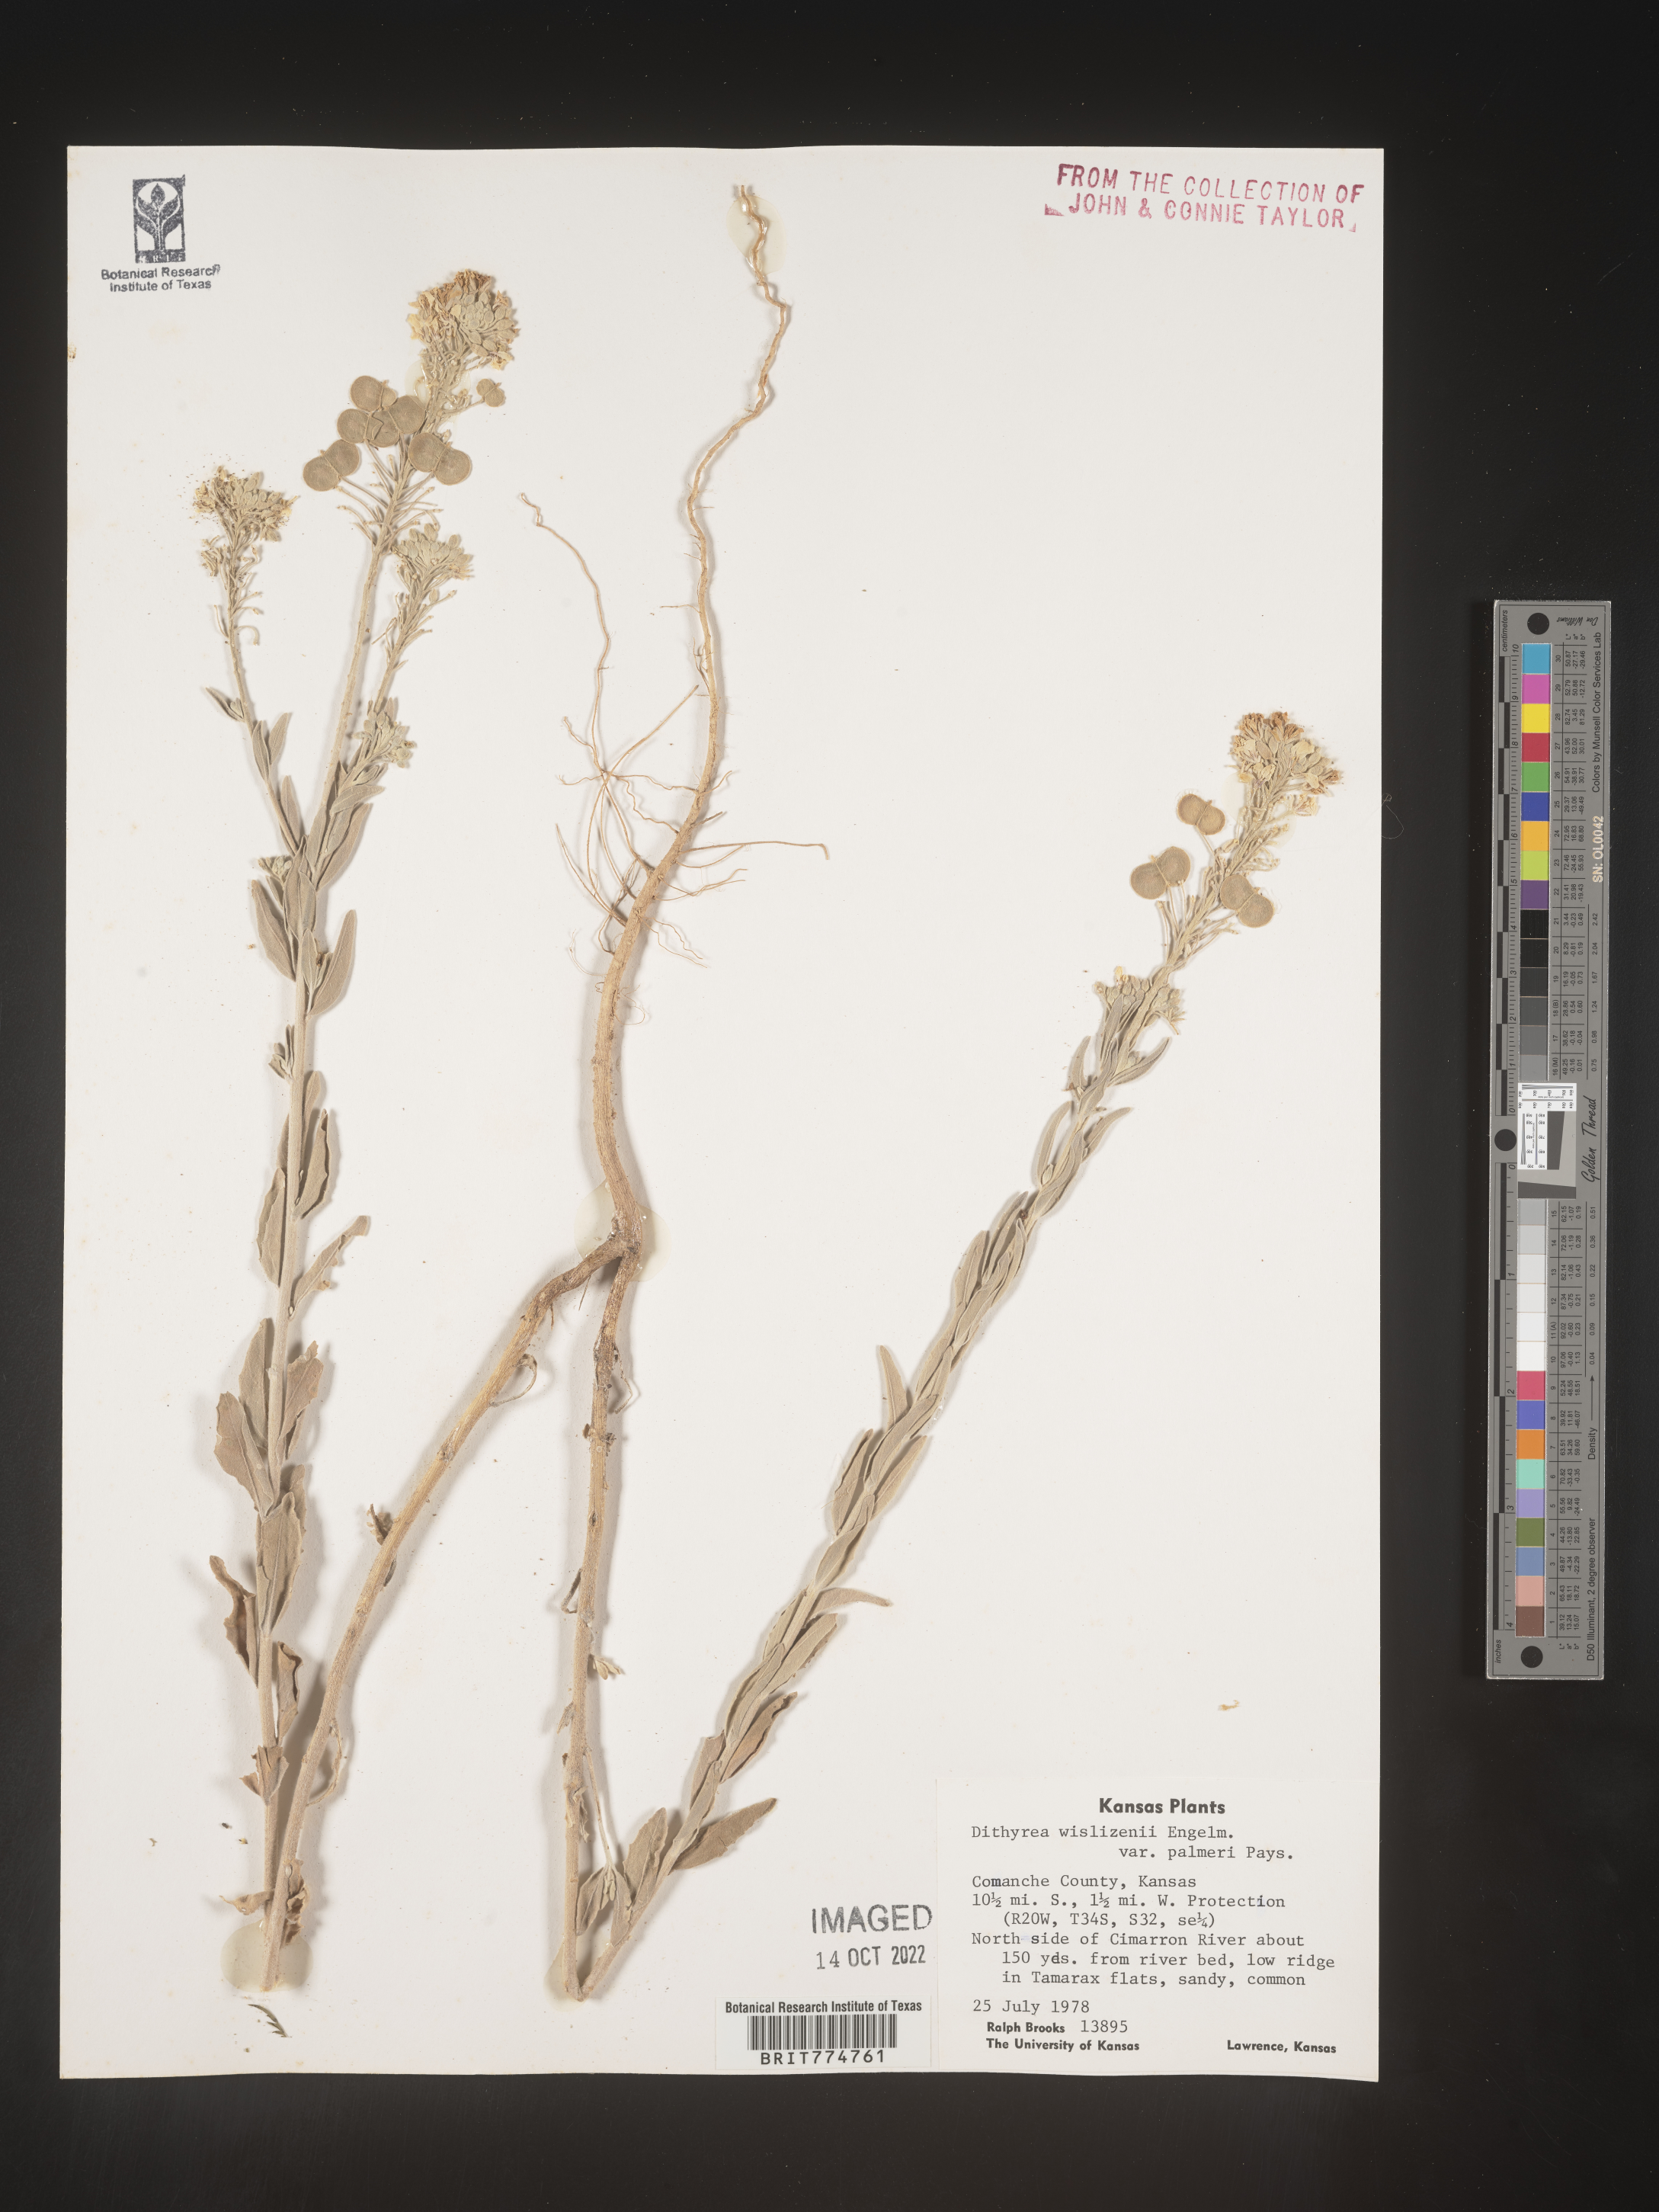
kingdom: Plantae
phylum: Tracheophyta
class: Magnoliopsida
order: Brassicales
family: Brassicaceae
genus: Dimorphocarpa
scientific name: Dimorphocarpa wislizenii
